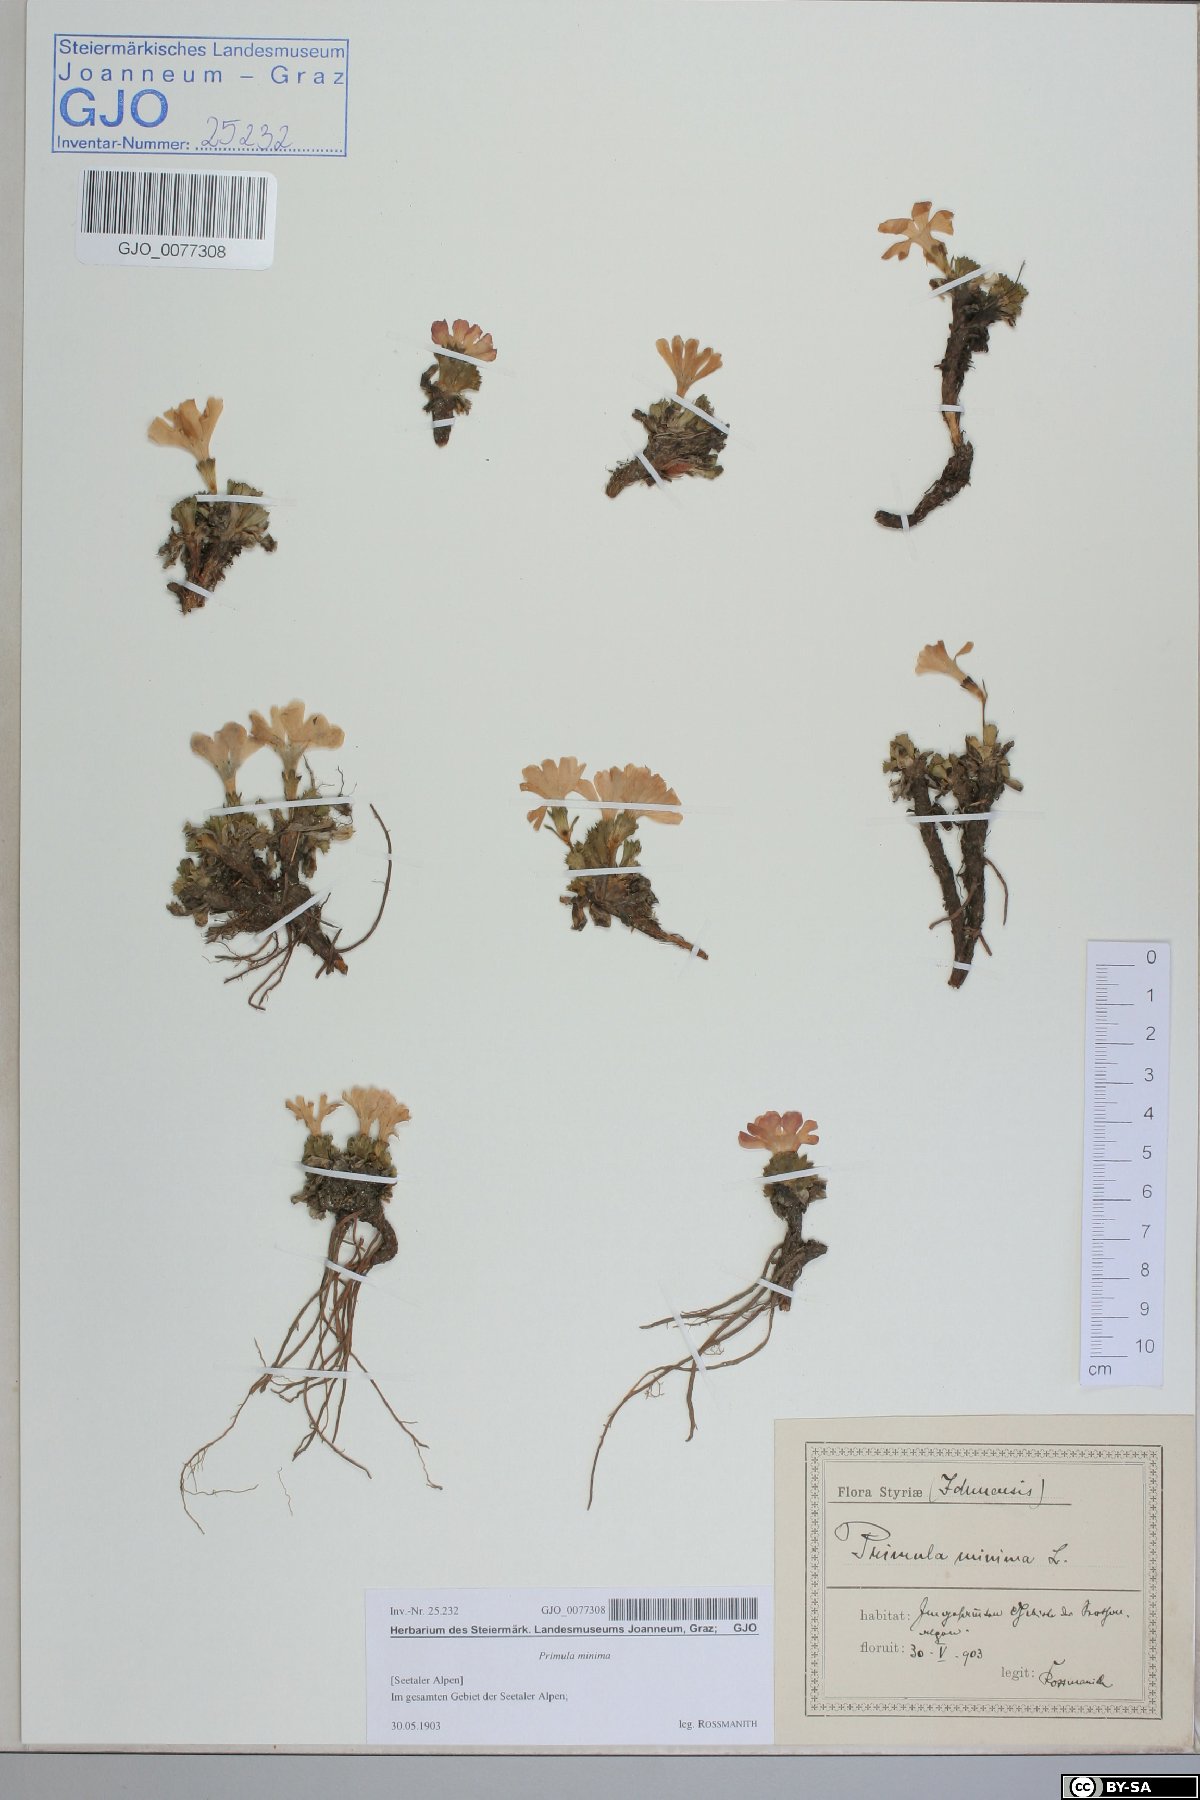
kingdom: Plantae
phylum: Tracheophyta
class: Magnoliopsida
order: Ericales
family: Primulaceae
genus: Primula
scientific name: Primula minima
